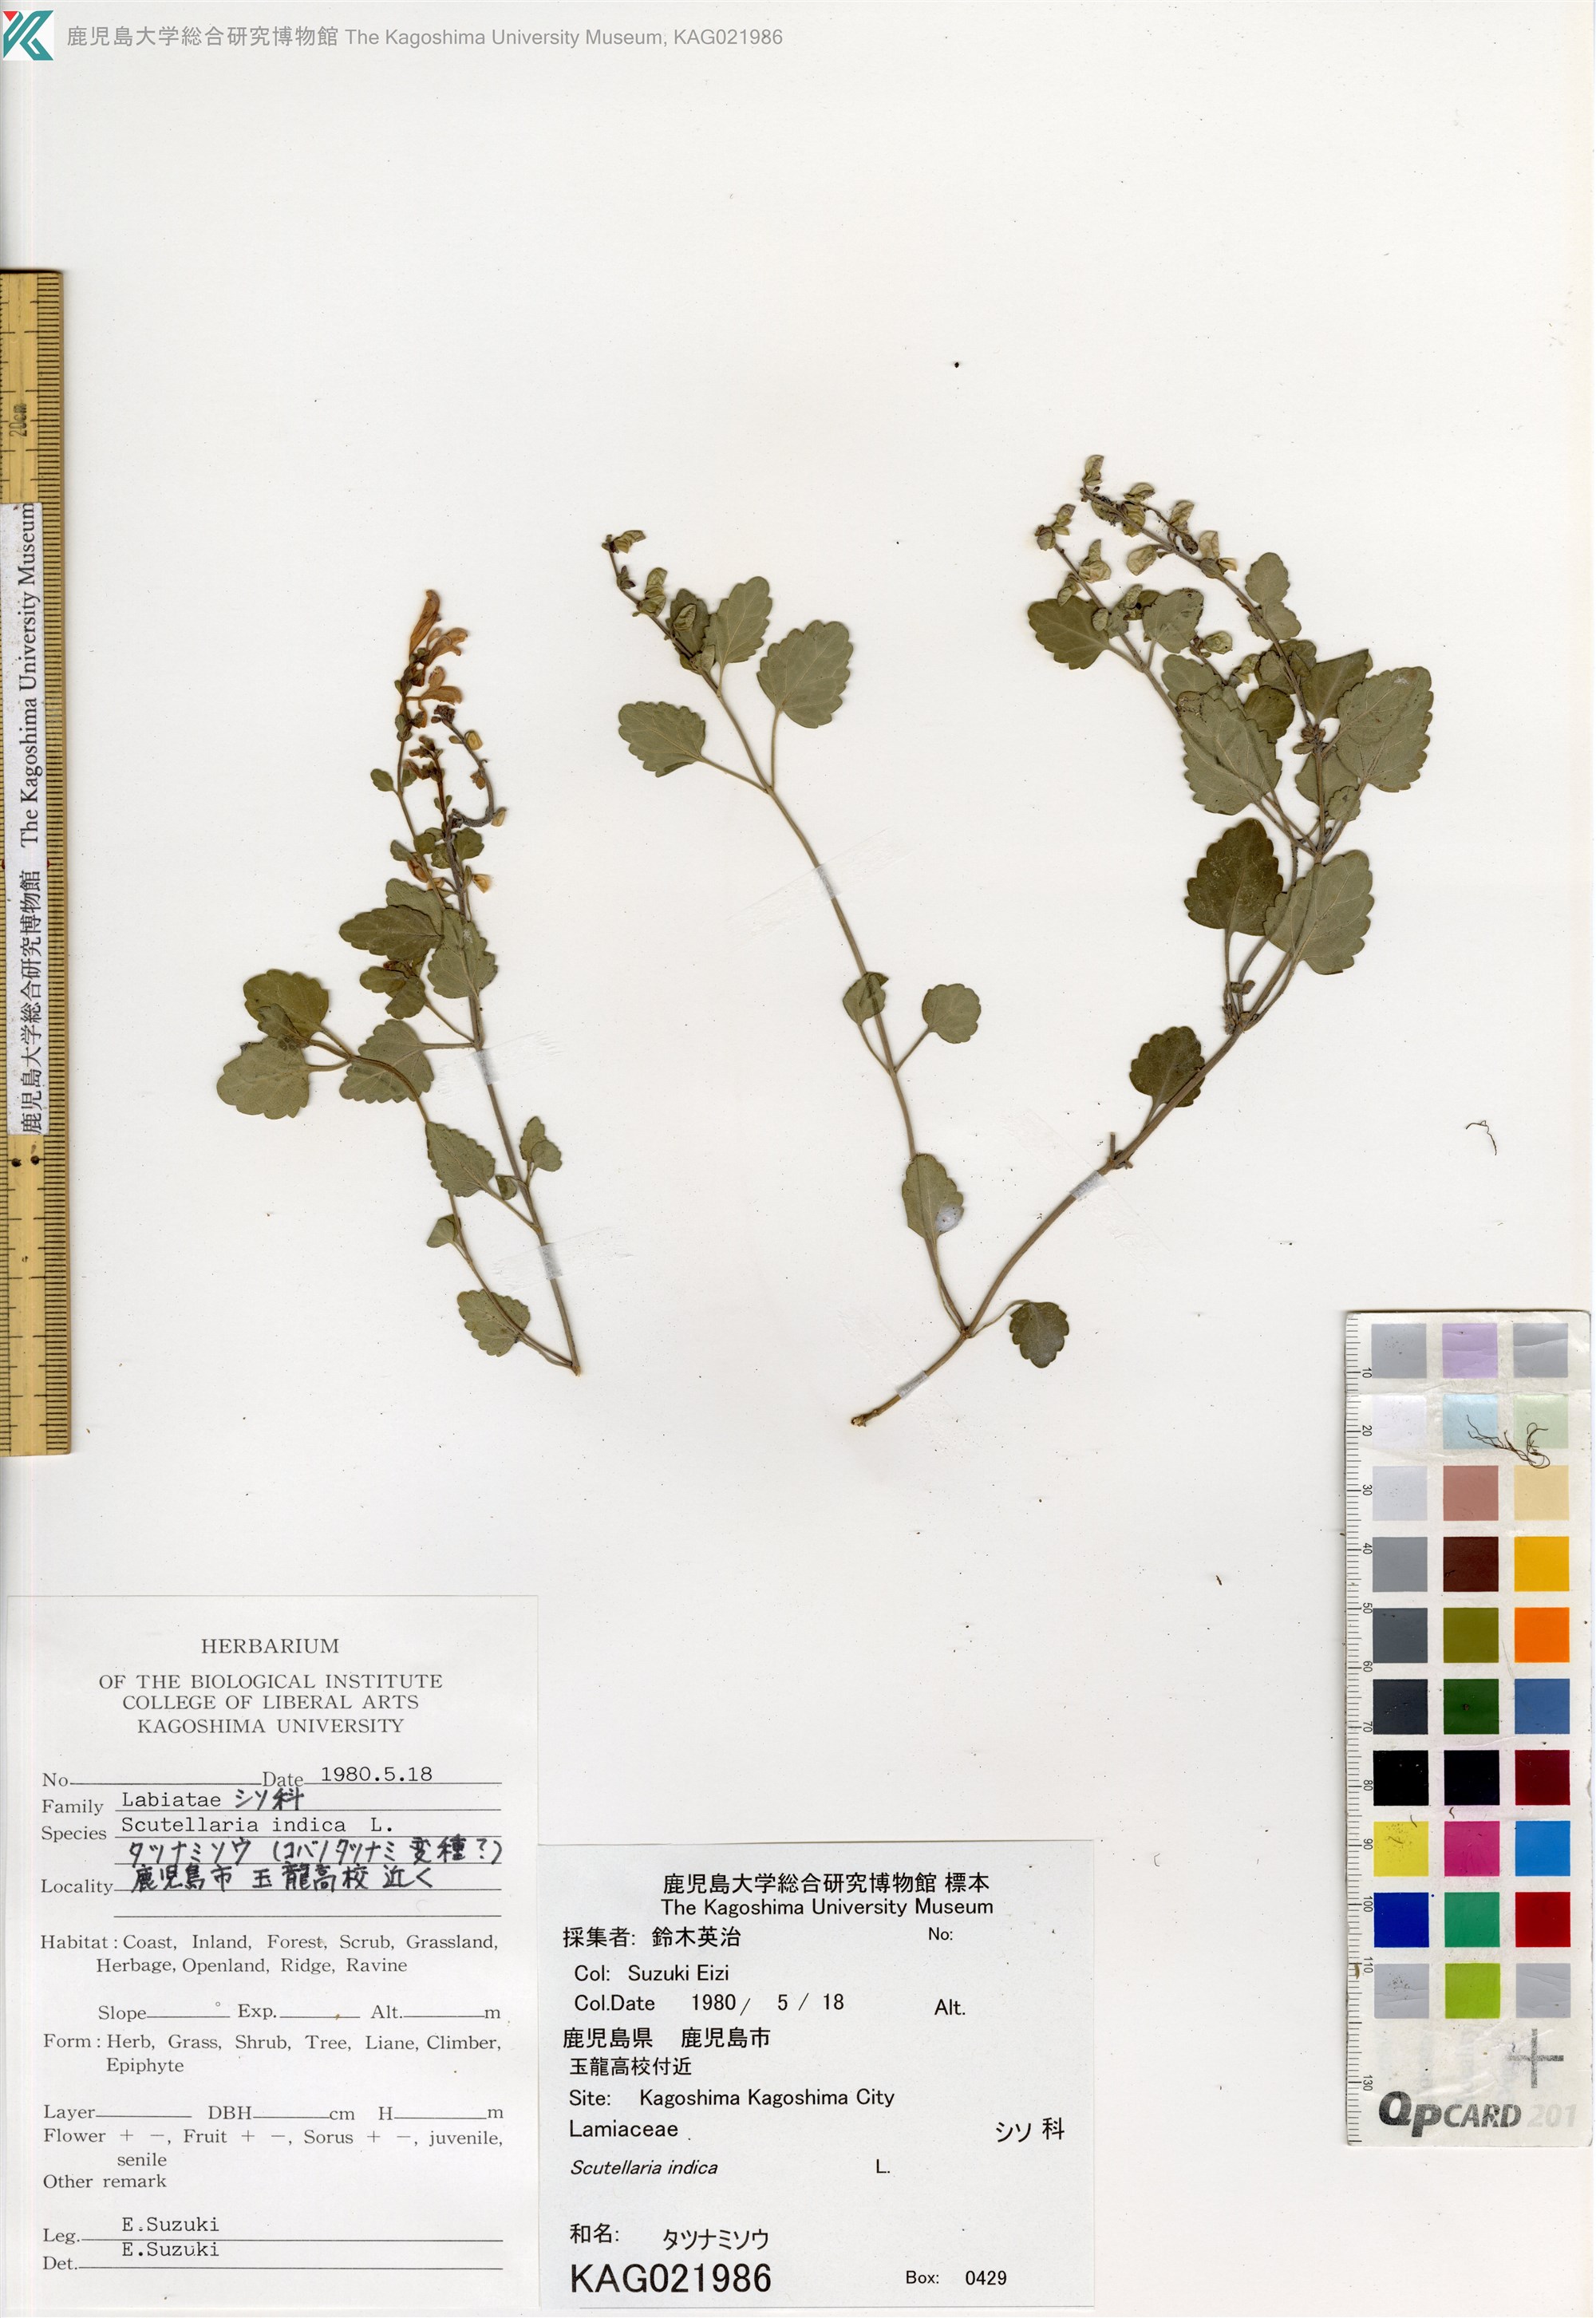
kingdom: Plantae
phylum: Tracheophyta
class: Magnoliopsida
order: Lamiales
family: Lamiaceae
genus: Scutellaria
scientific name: Scutellaria indica
